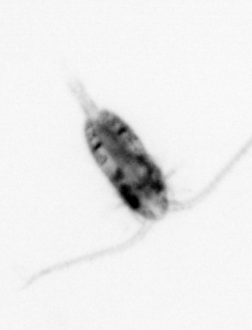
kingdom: Animalia
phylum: Arthropoda
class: Copepoda
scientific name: Copepoda
